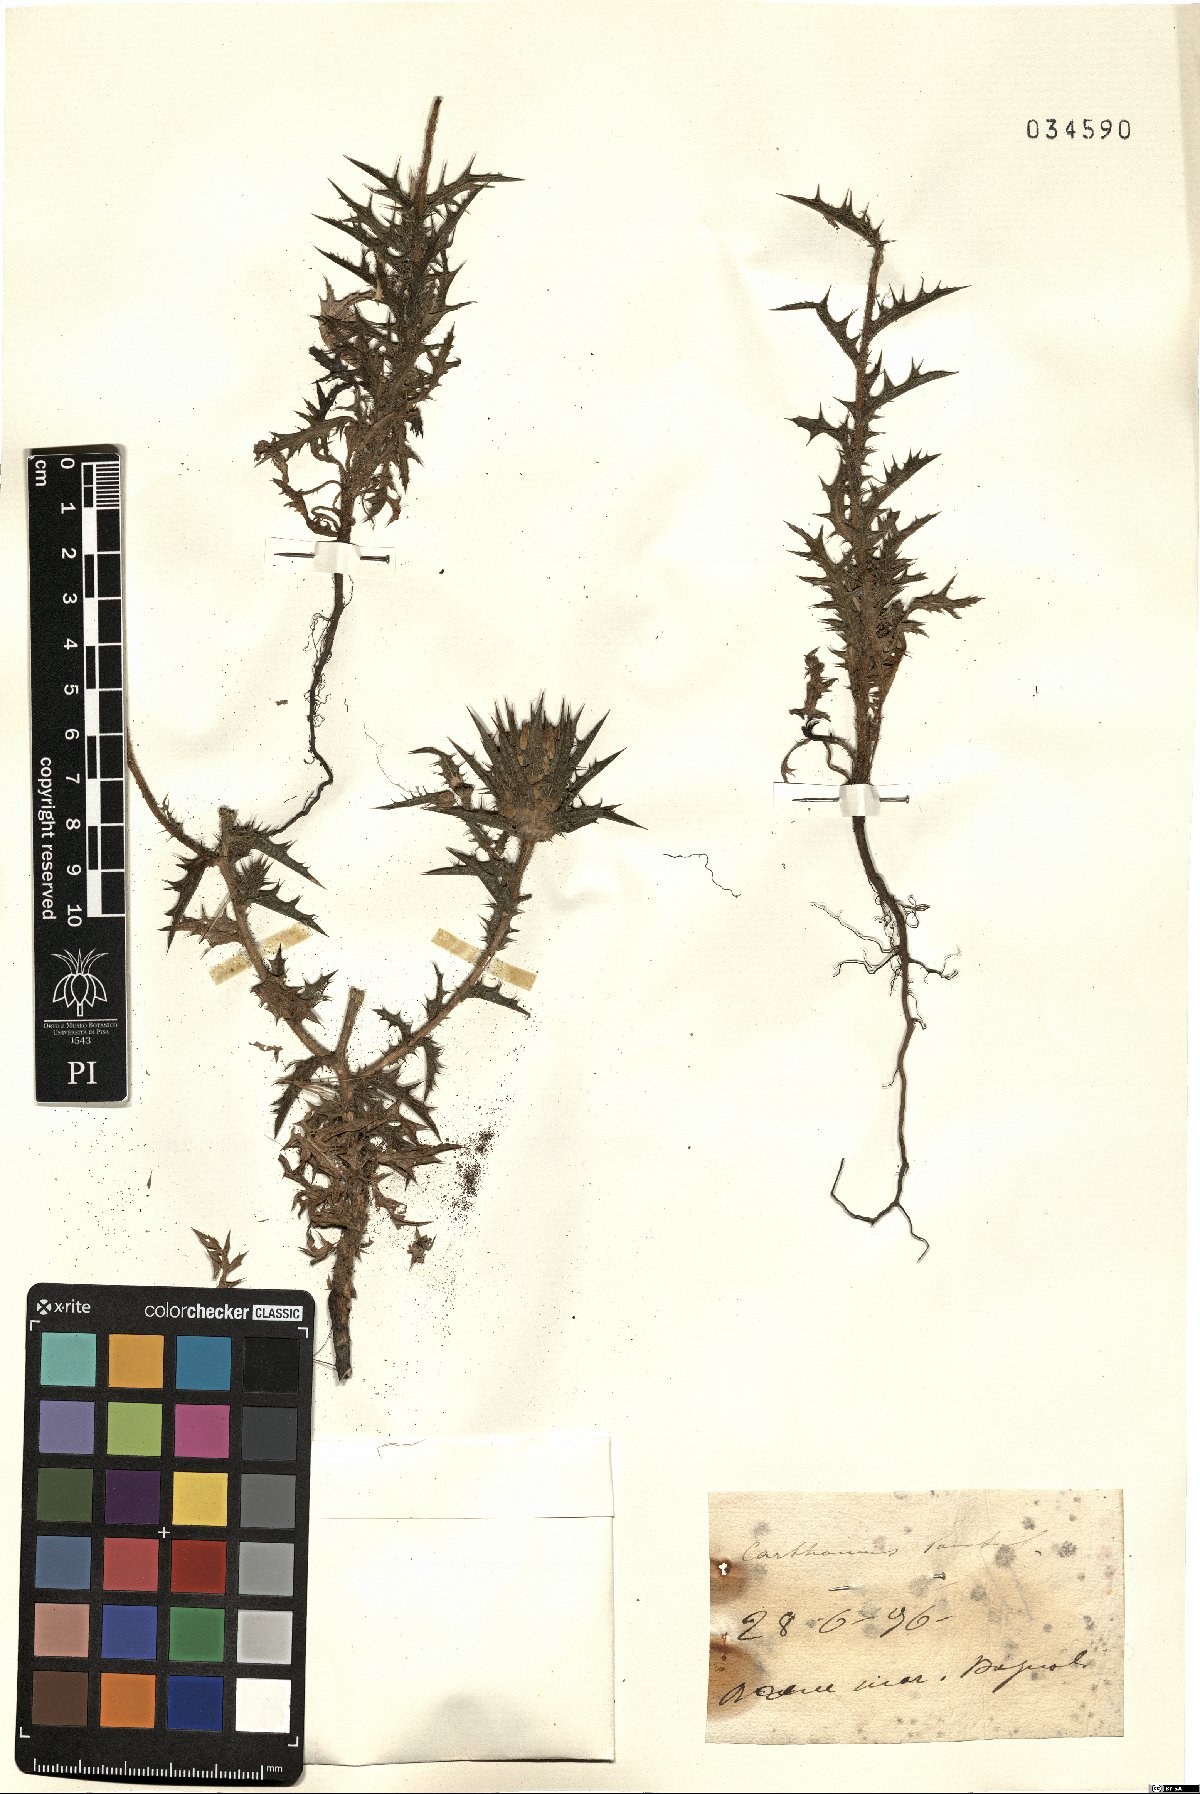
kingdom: Plantae
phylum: Tracheophyta
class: Magnoliopsida
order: Asterales
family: Asteraceae
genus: Carthamus
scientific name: Carthamus lanatus
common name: Downy safflower
